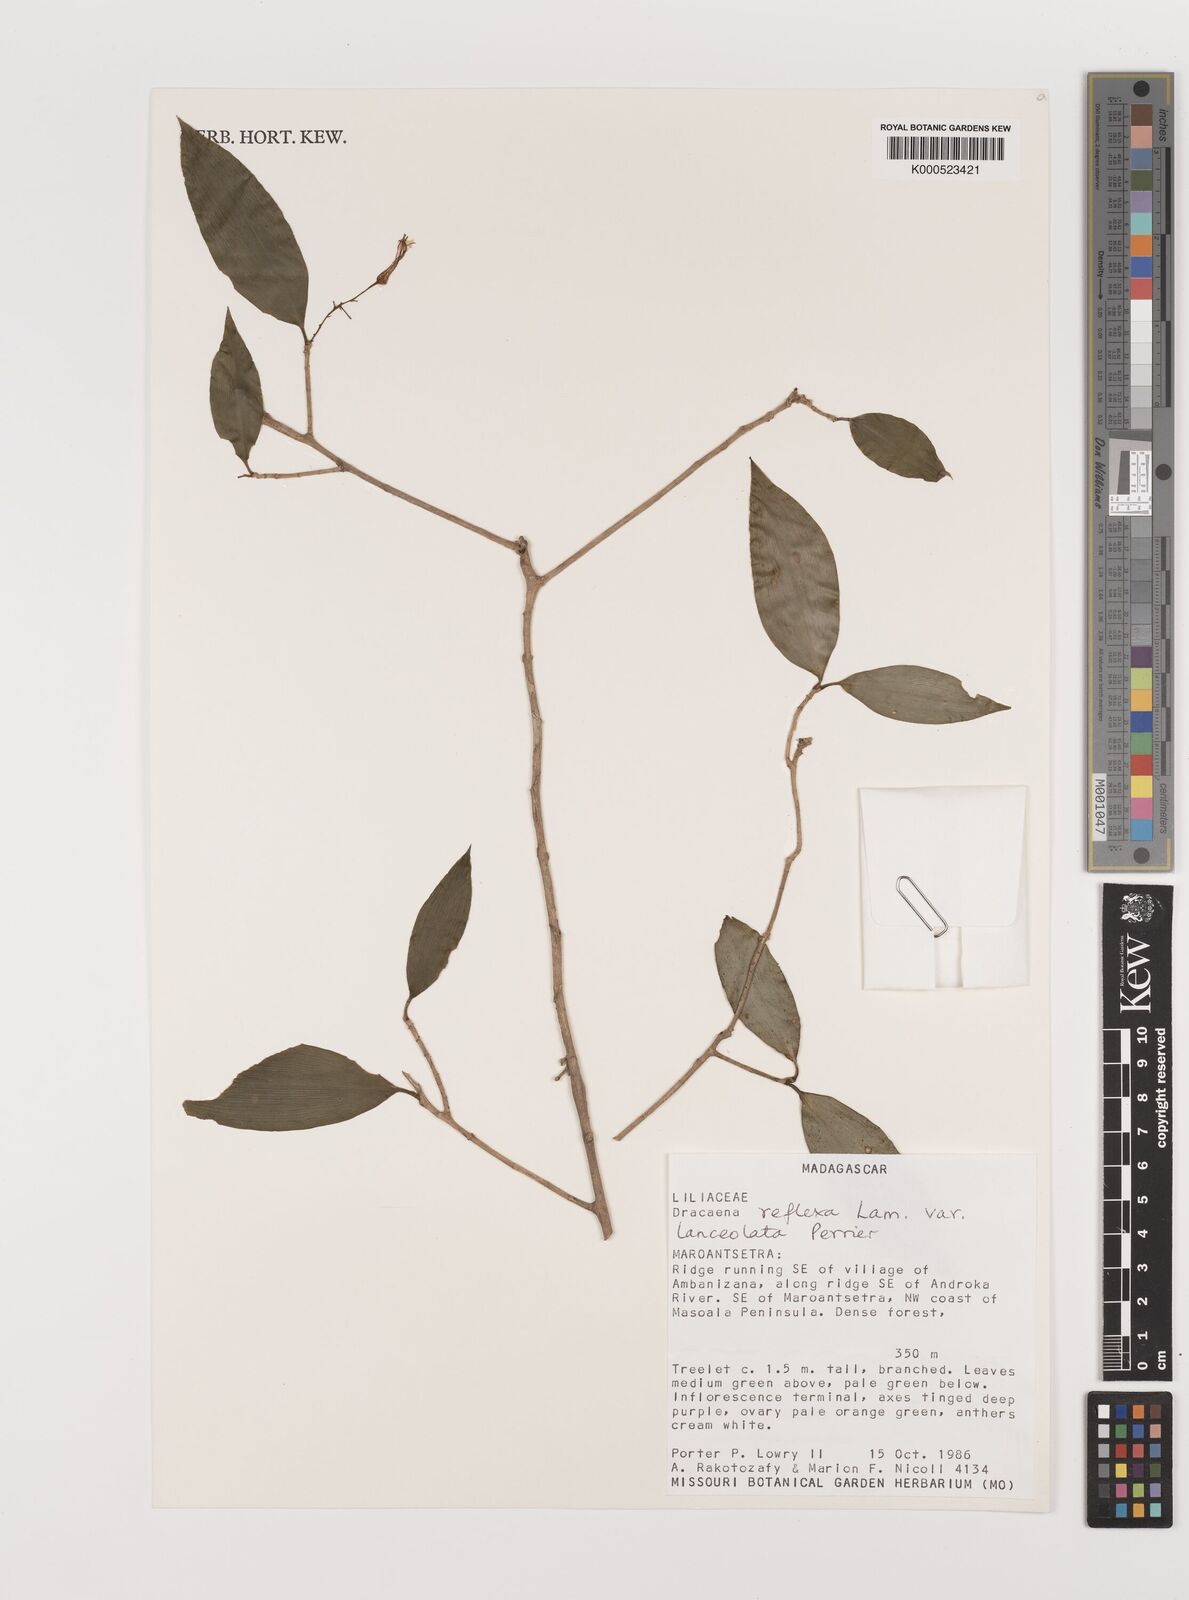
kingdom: Plantae
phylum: Tracheophyta
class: Liliopsida
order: Asparagales
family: Asparagaceae
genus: Dracaena
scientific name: Dracaena reflexa
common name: Song-of-india
